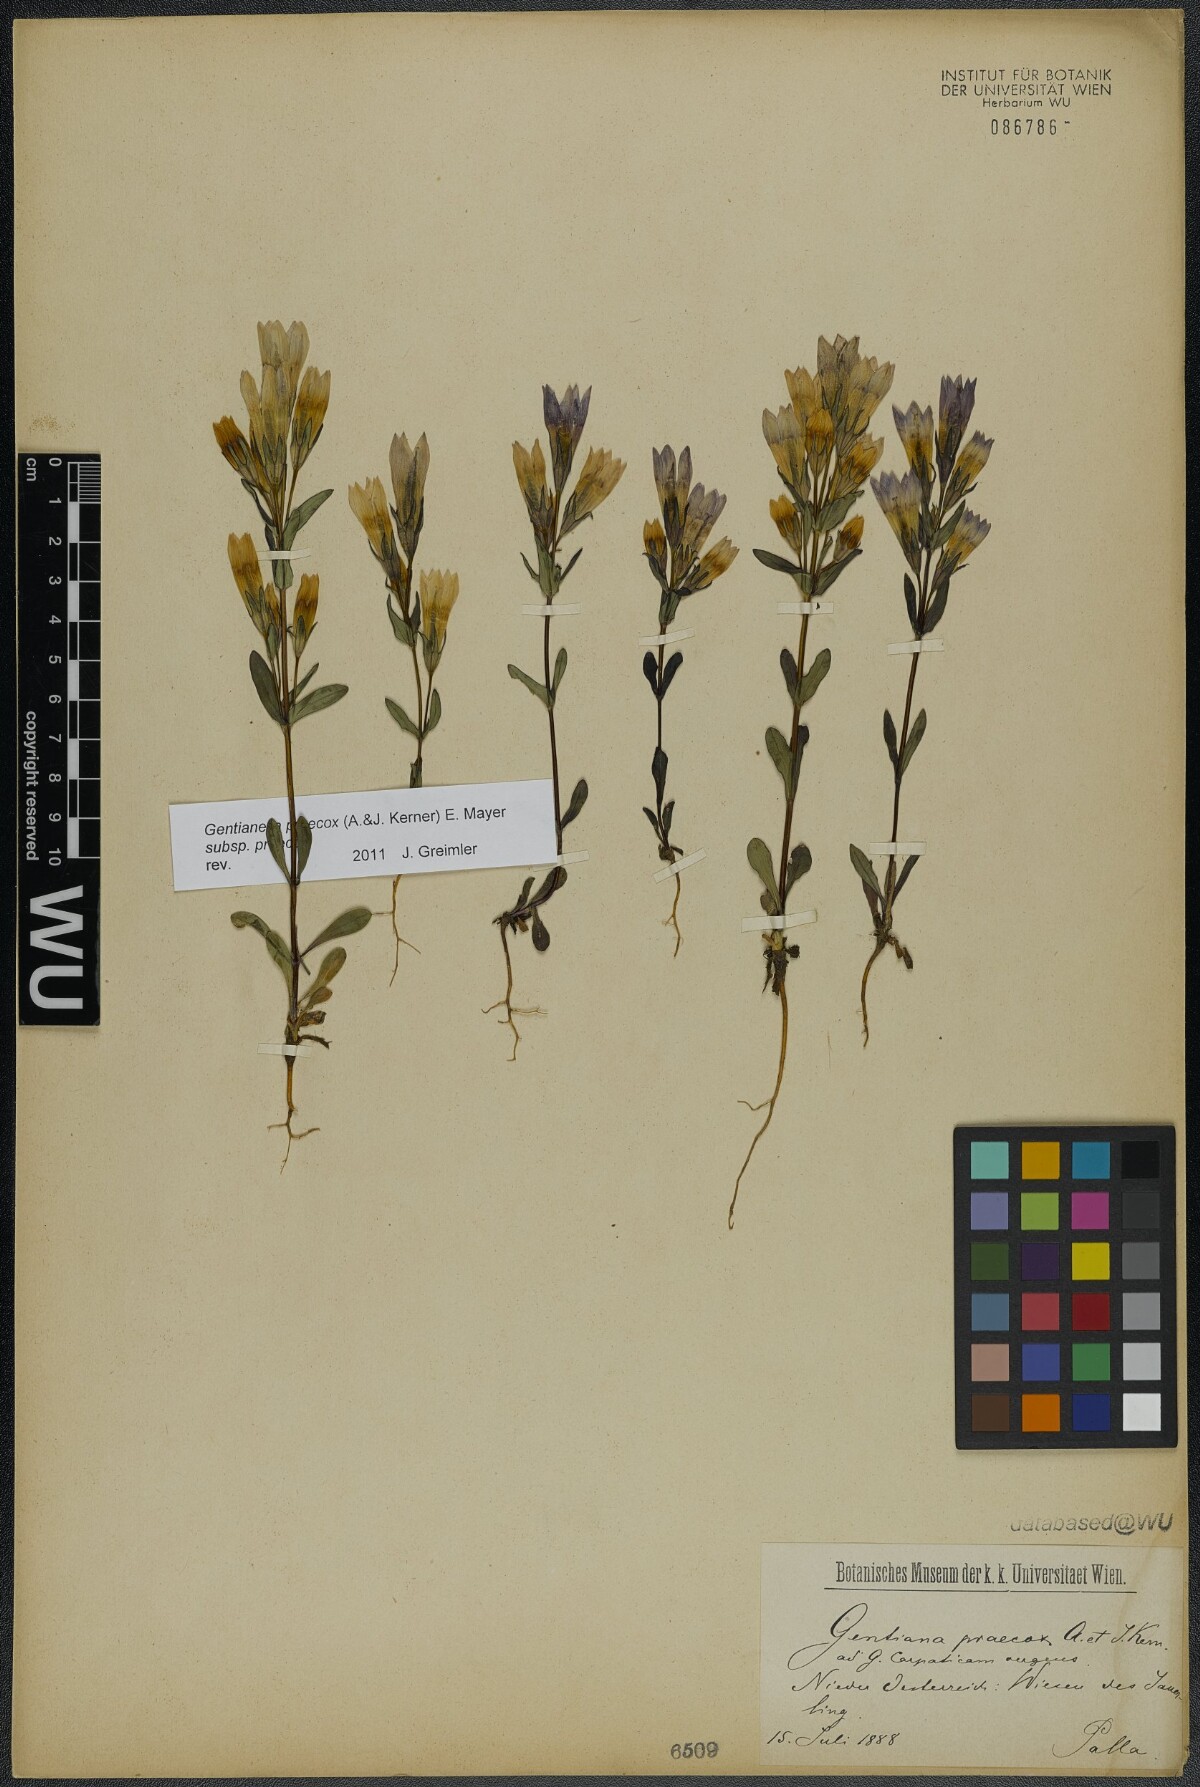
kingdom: Plantae
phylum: Tracheophyta
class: Magnoliopsida
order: Gentianales
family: Gentianaceae
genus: Gentianella
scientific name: Gentianella praecox
